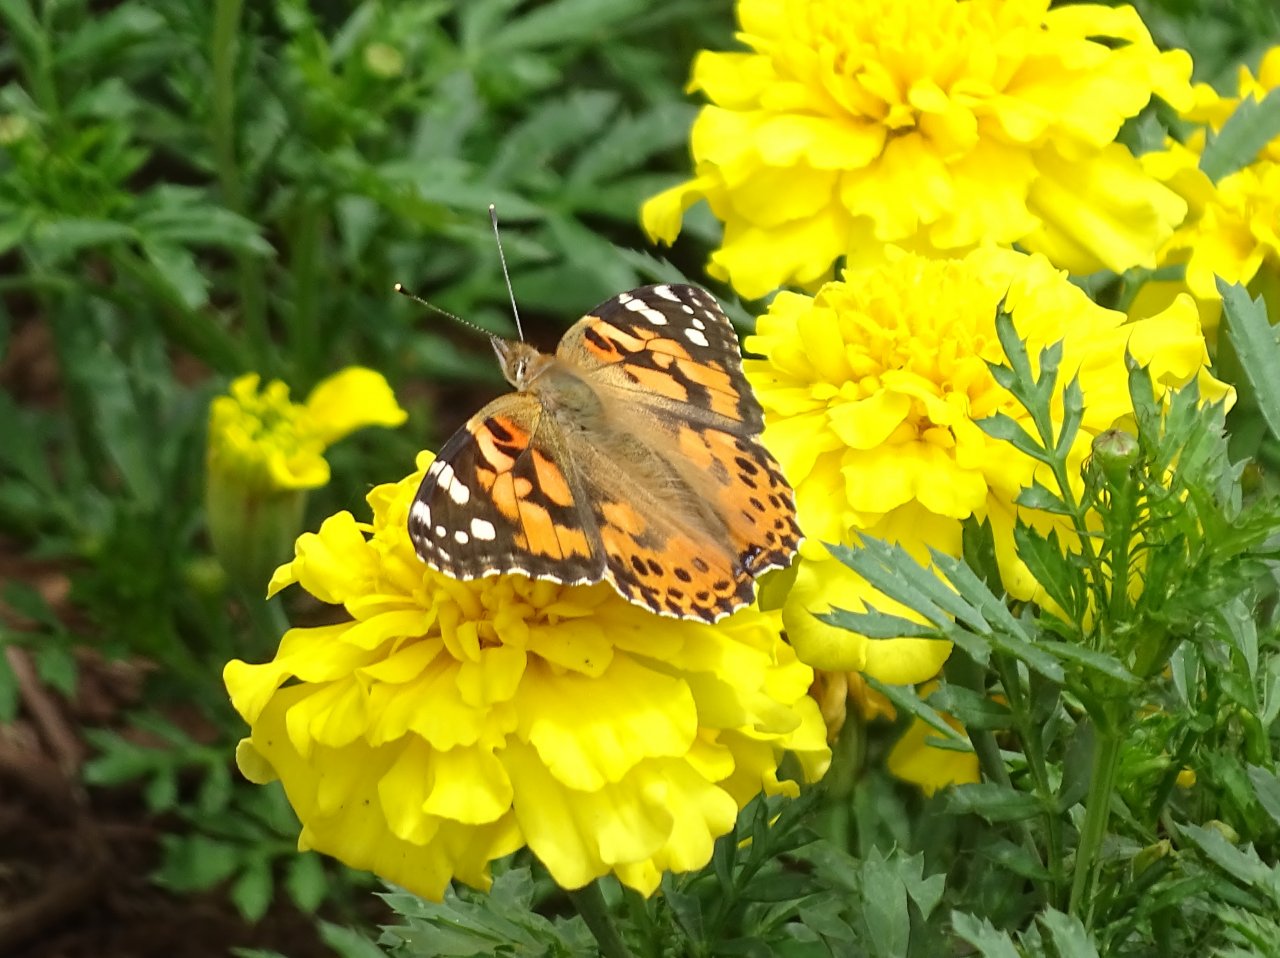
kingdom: Animalia
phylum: Arthropoda
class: Insecta
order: Lepidoptera
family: Nymphalidae
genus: Vanessa
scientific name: Vanessa cardui
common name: Painted Lady
